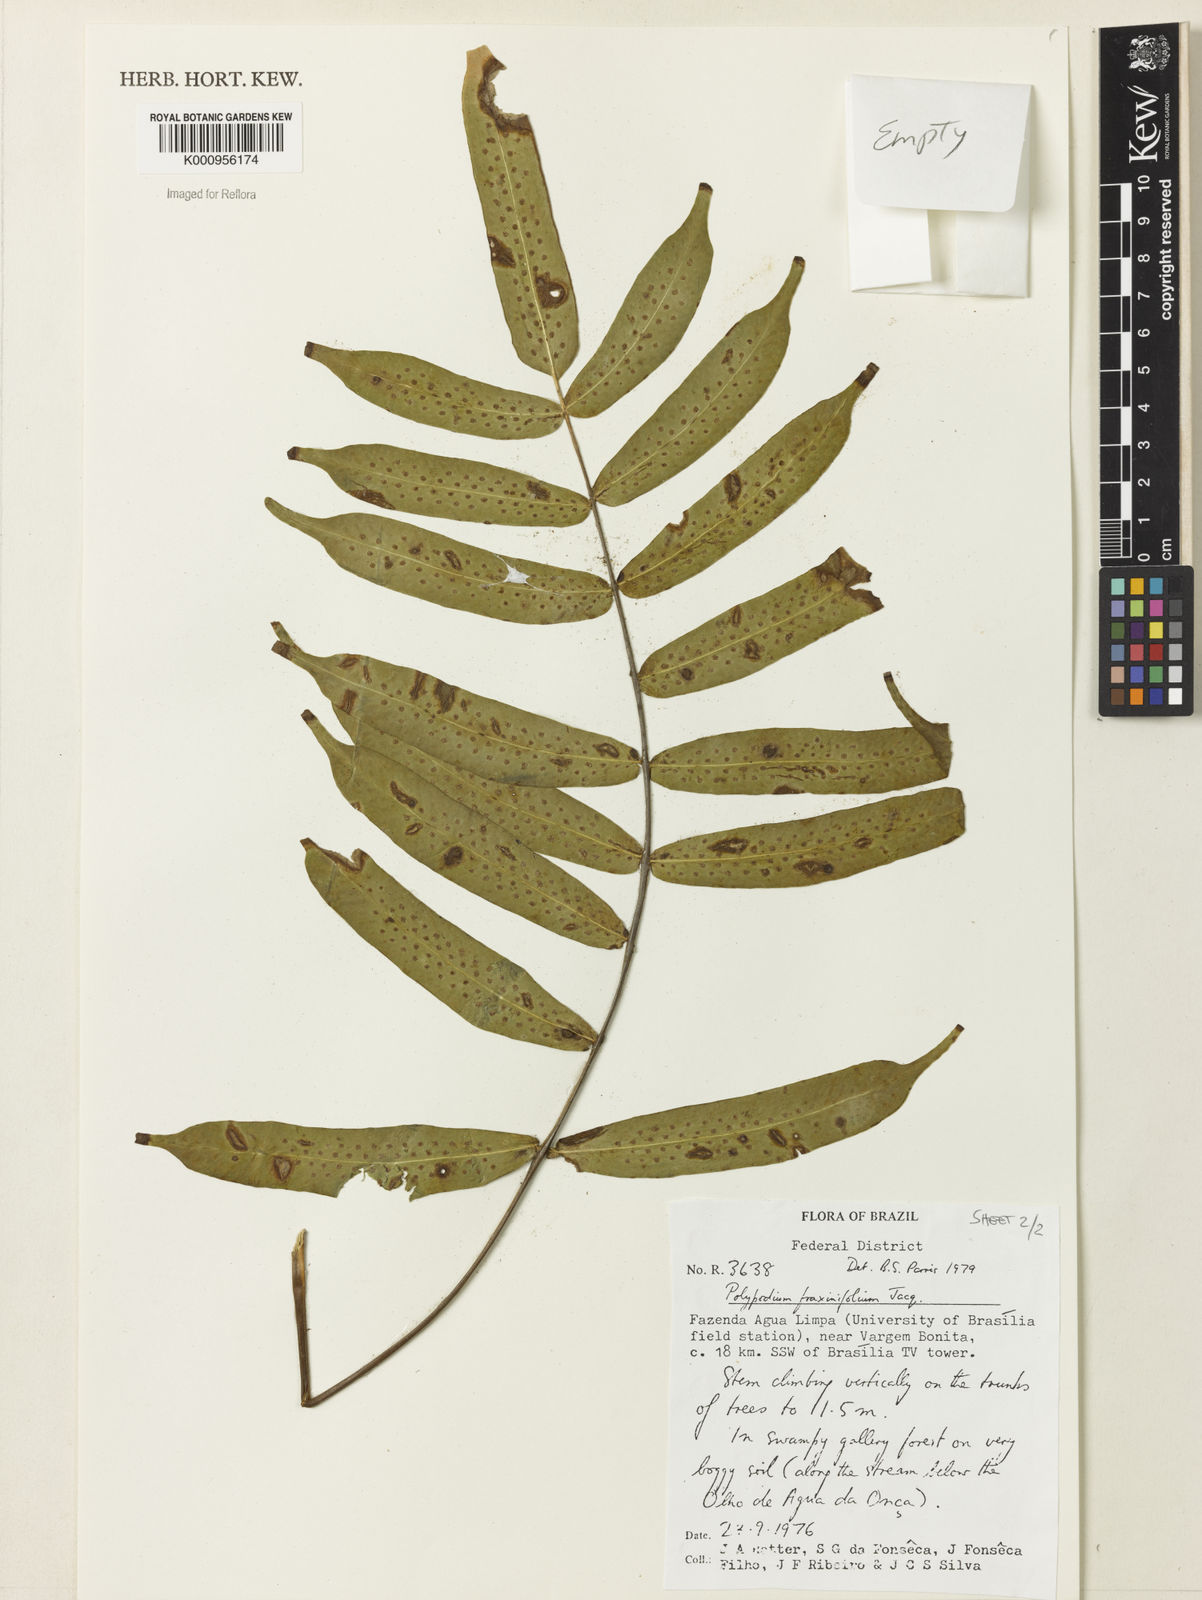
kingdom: Plantae
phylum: Tracheophyta
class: Polypodiopsida
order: Polypodiales
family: Polypodiaceae
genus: Serpocaulon
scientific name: Serpocaulon fraxinifolium
